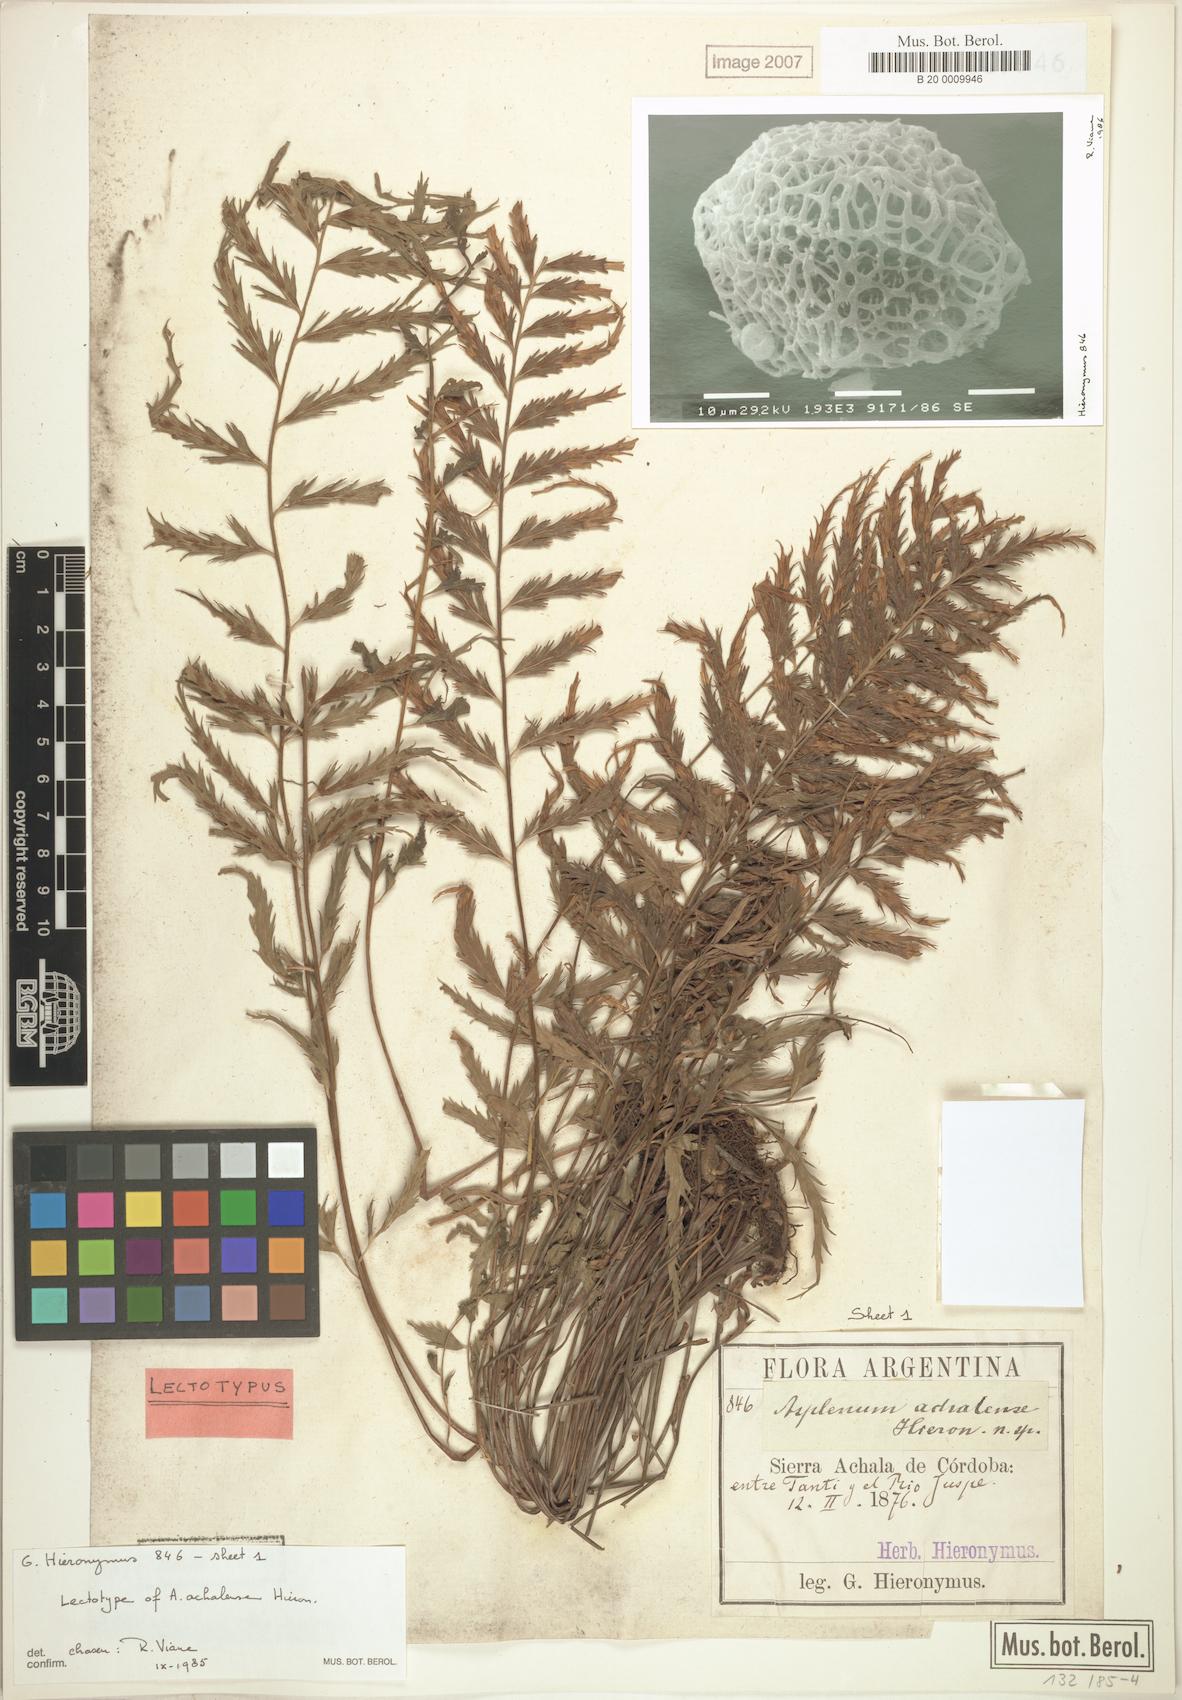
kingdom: Plantae
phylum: Tracheophyta
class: Polypodiopsida
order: Polypodiales
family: Aspleniaceae
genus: Asplenium
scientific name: Asplenium achalense
